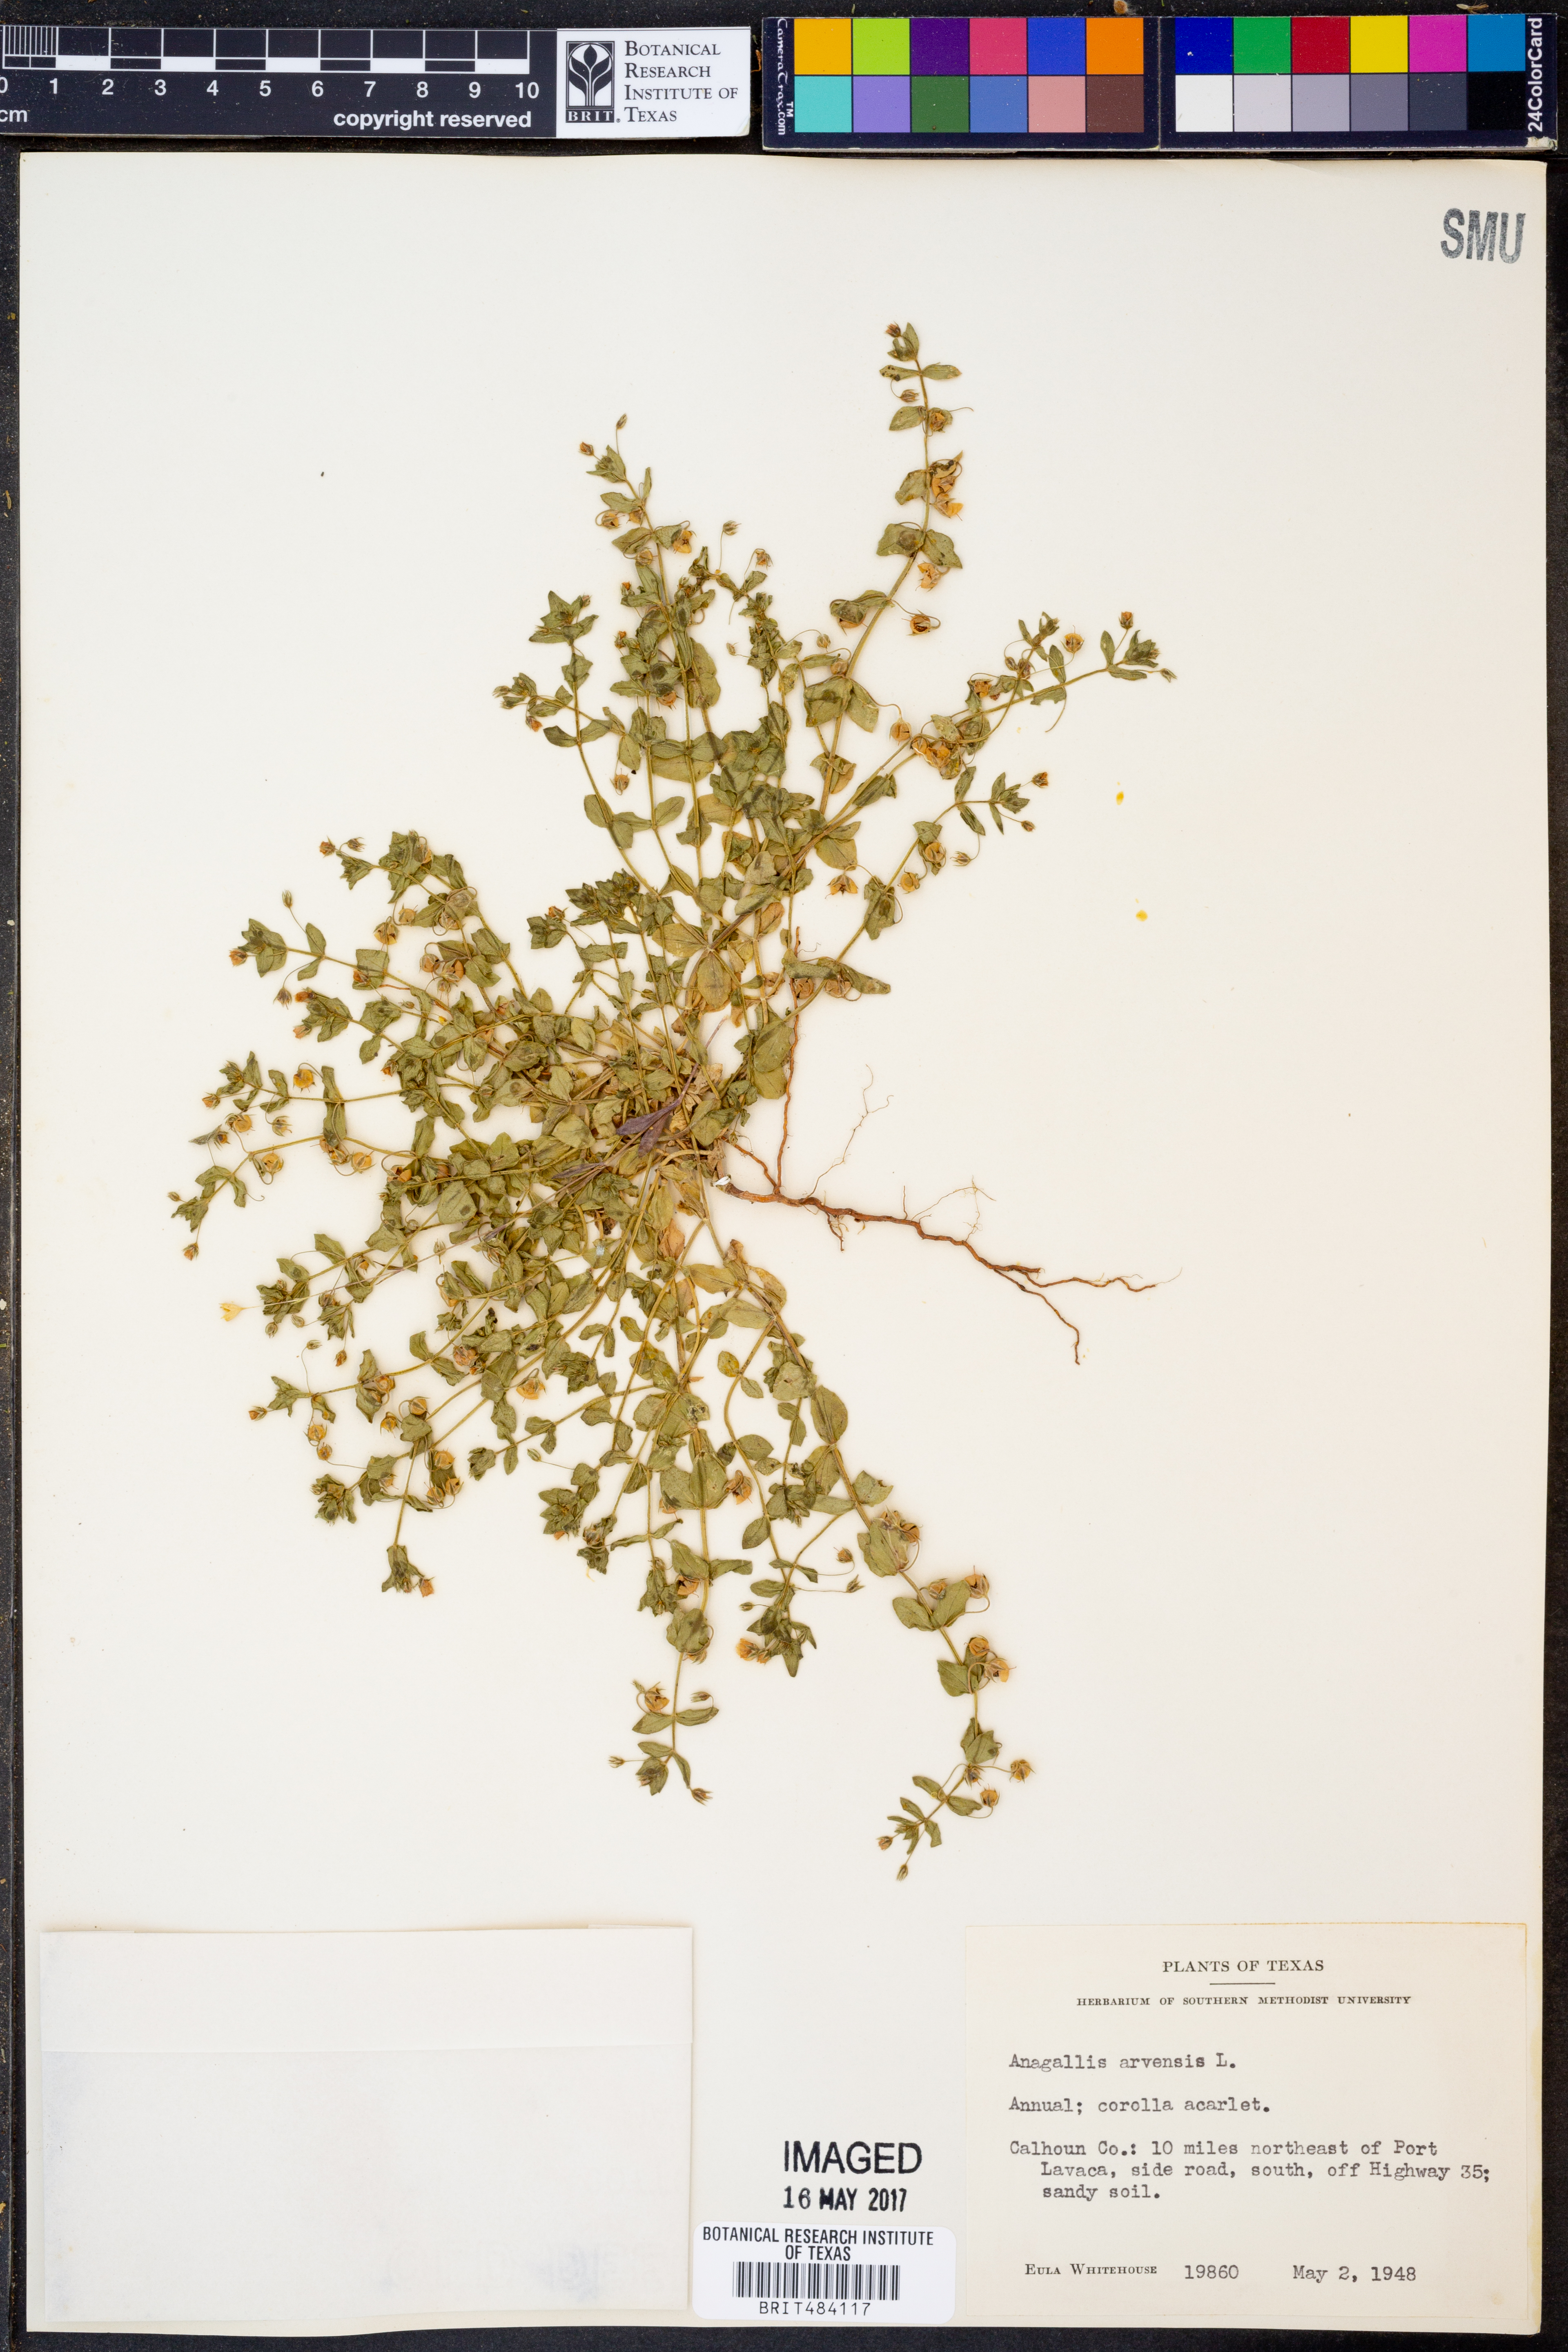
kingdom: Plantae
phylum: Tracheophyta
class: Magnoliopsida
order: Ericales
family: Primulaceae
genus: Lysimachia
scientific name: Lysimachia arvensis
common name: Scarlet pimpernel
